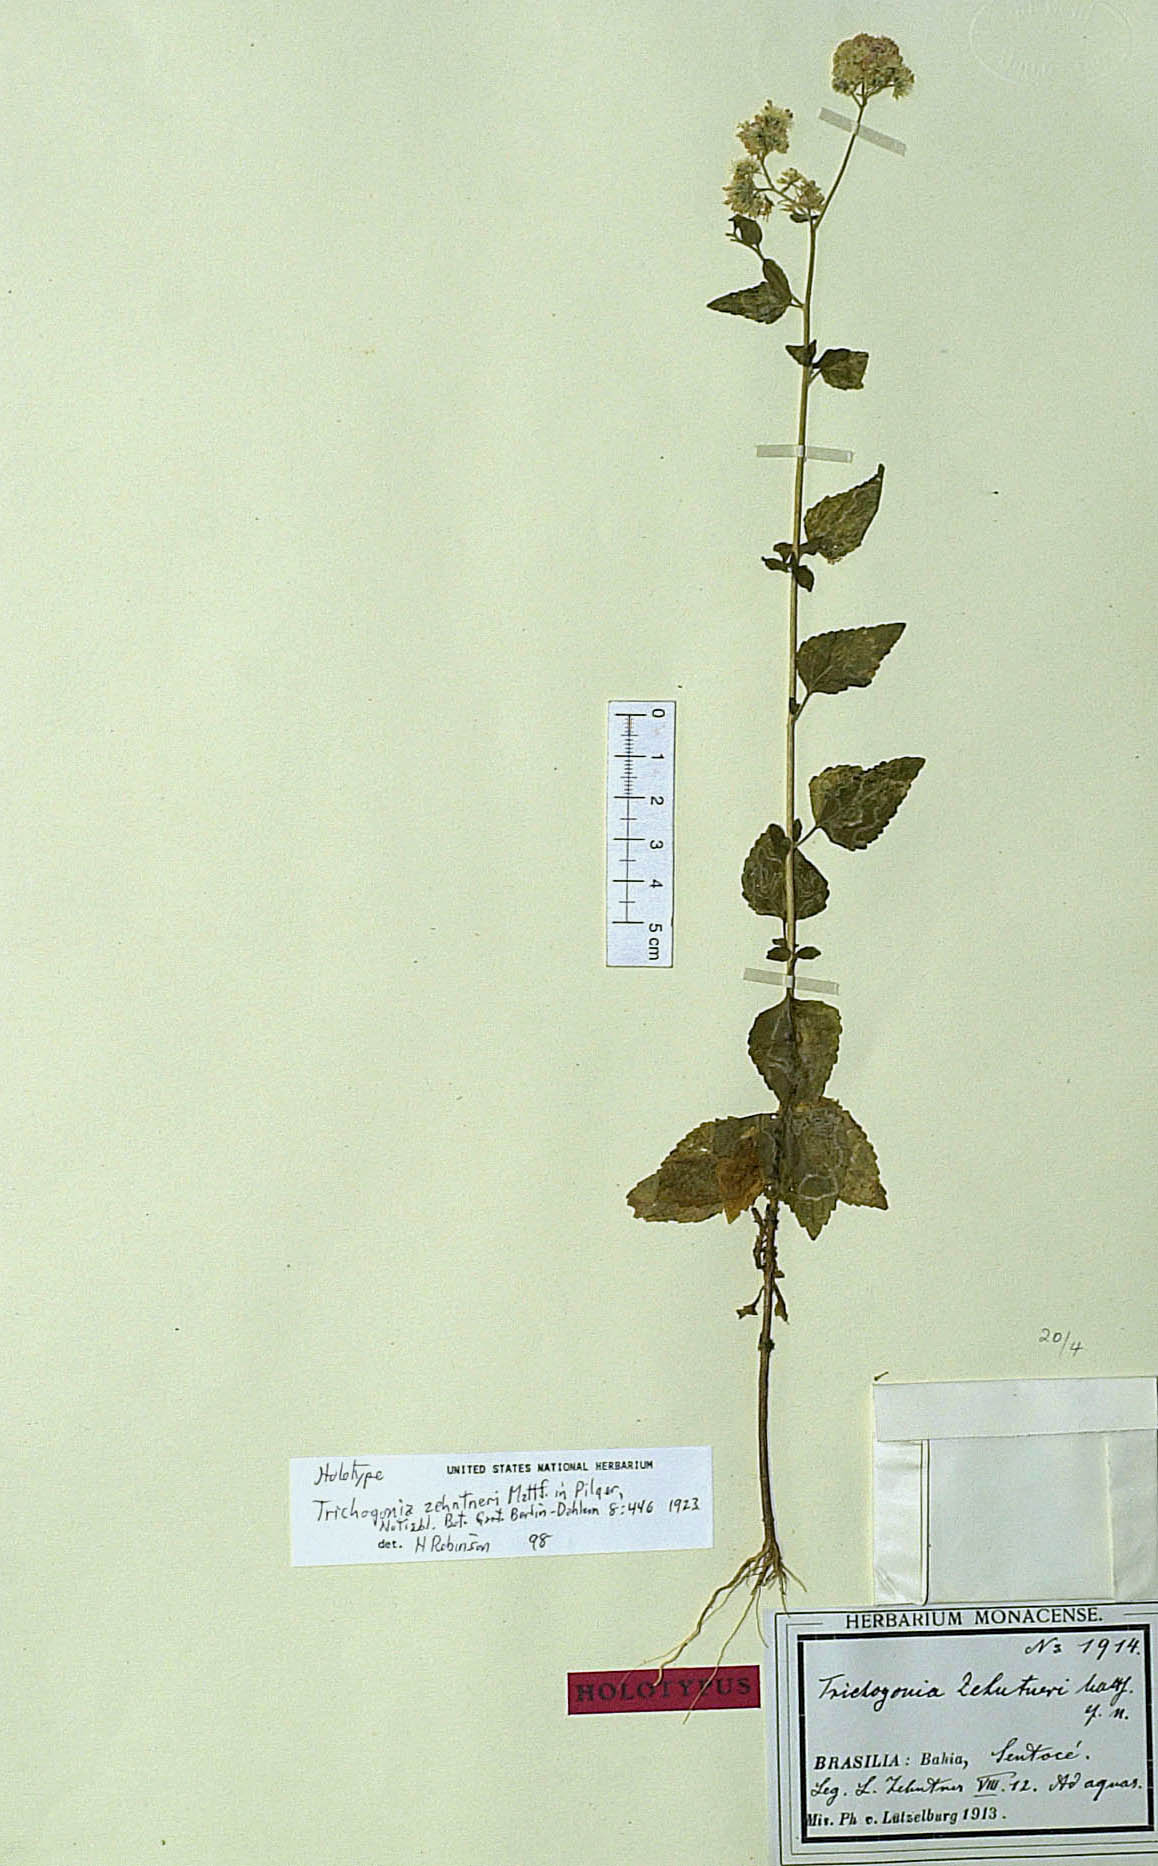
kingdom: Plantae
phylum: Tracheophyta
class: Magnoliopsida
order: Asterales
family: Asteraceae
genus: Trichogonia
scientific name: Trichogonia eupatorioides
